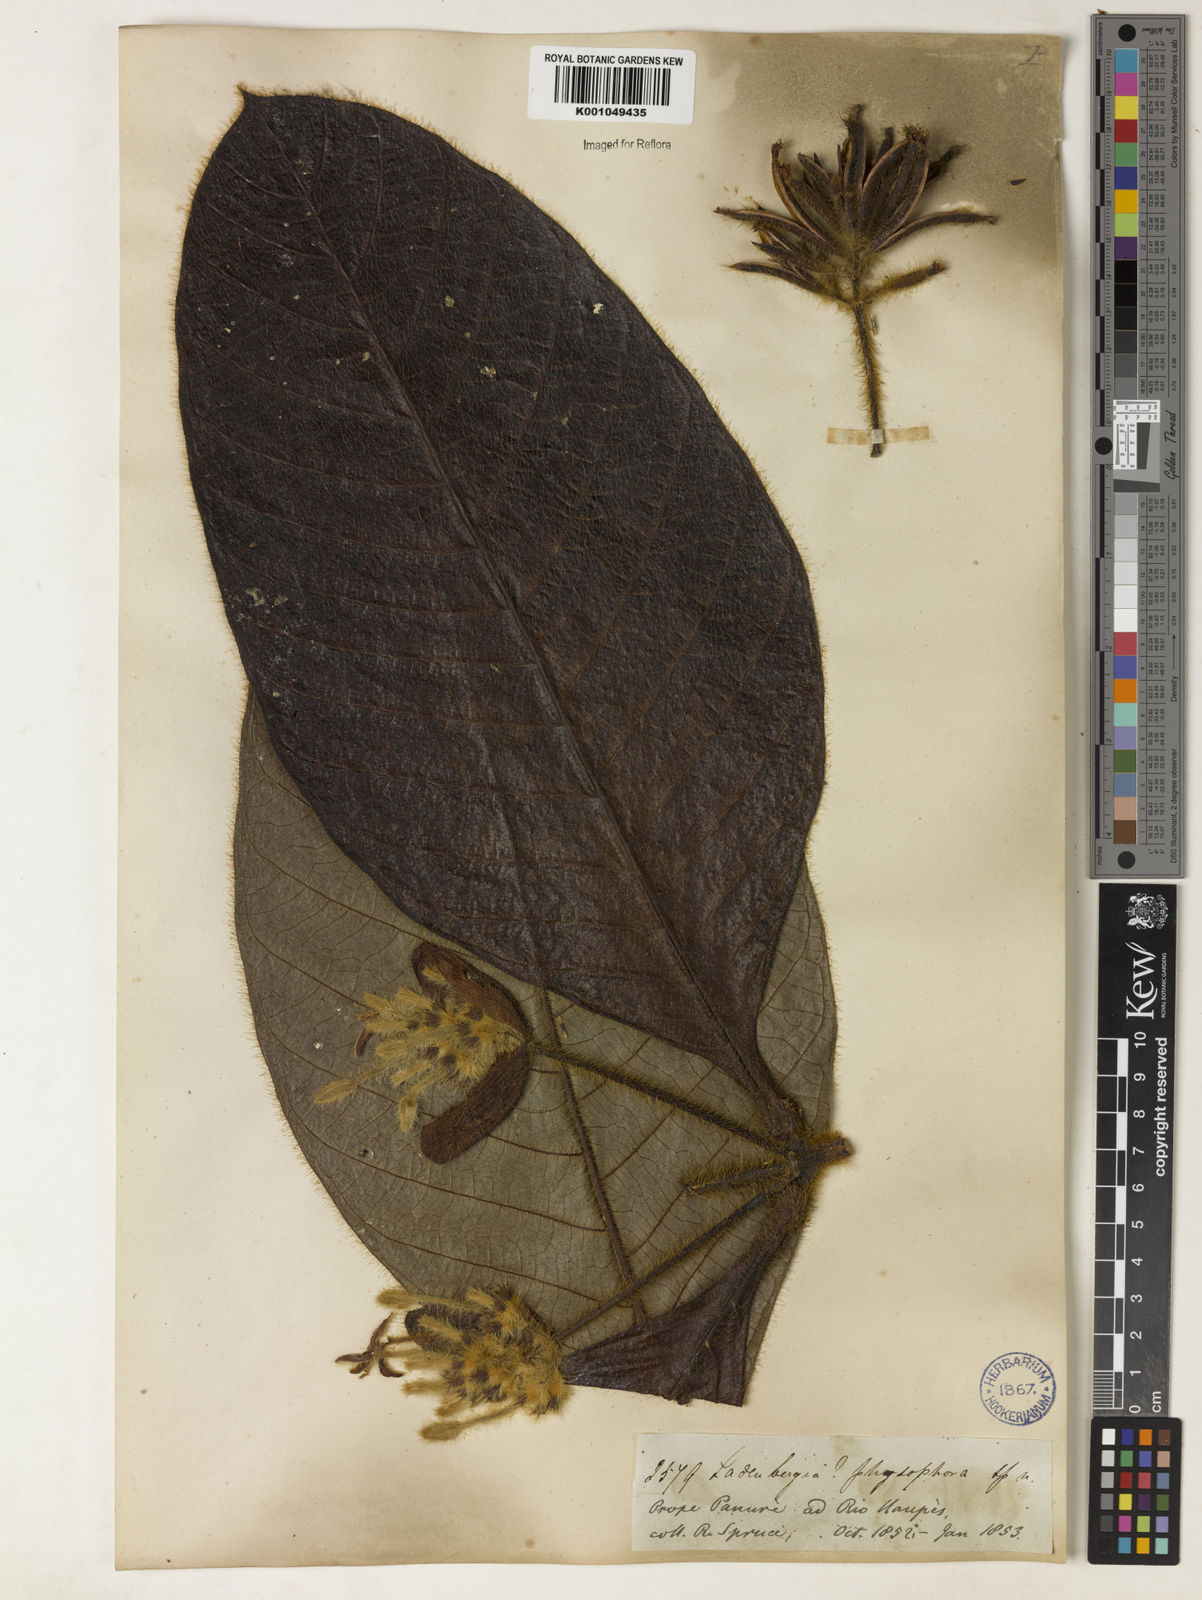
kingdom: Plantae
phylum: Tracheophyta
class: Magnoliopsida
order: Gentianales
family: Rubiaceae
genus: Remijia
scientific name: Remijia physophora
